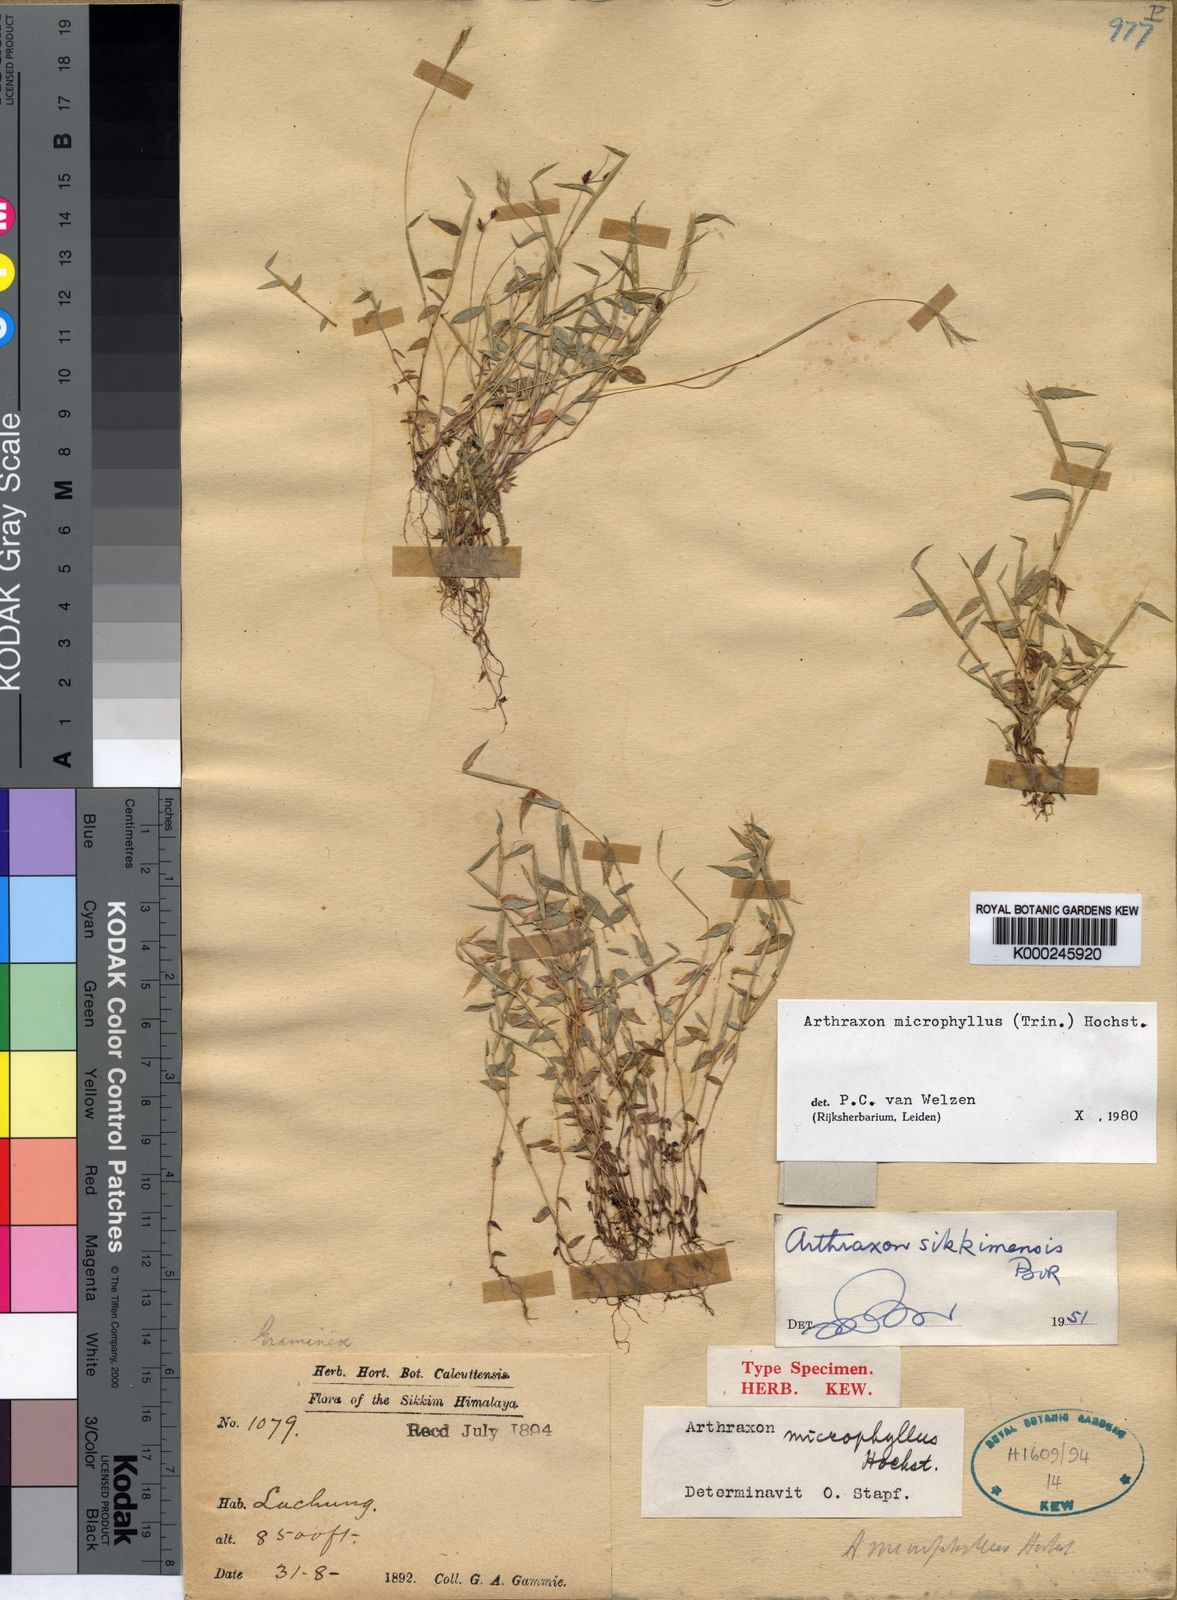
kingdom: Plantae
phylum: Tracheophyta
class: Liliopsida
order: Poales
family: Poaceae
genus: Arthraxon
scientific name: Arthraxon microphyllus
